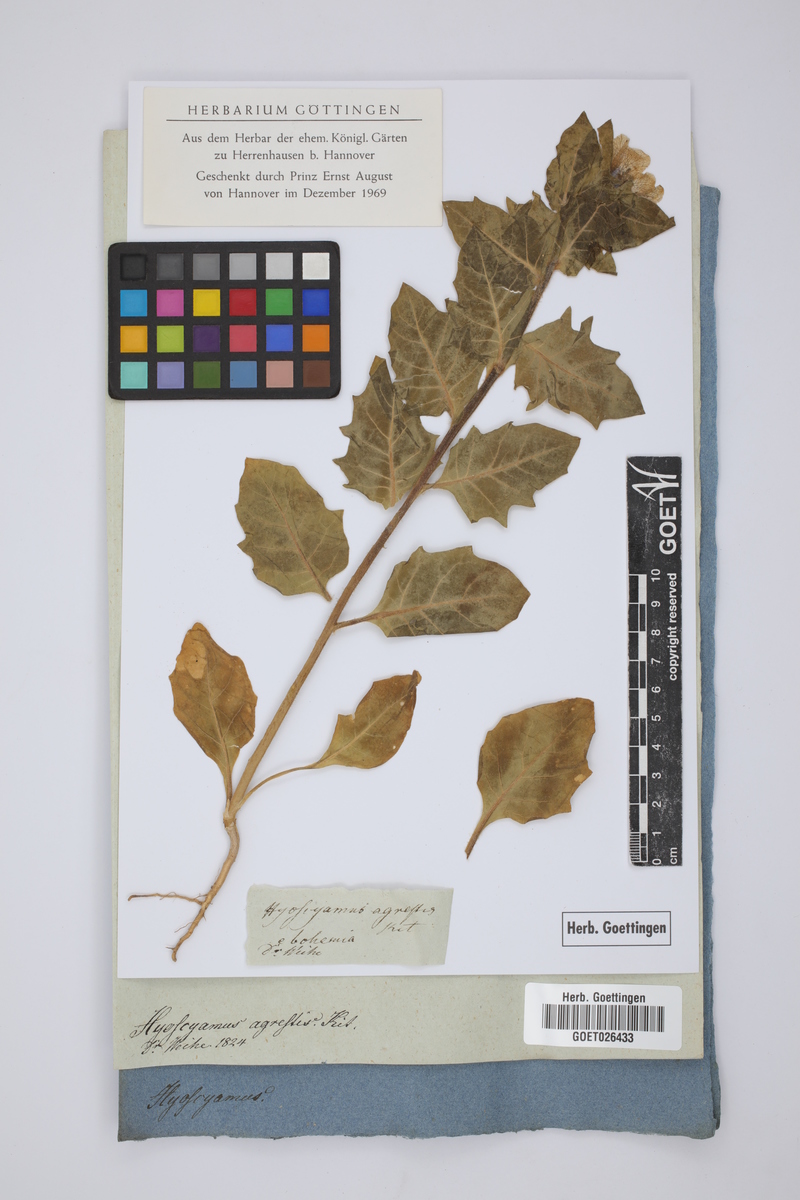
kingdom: Plantae
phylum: Tracheophyta
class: Magnoliopsida
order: Solanales
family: Solanaceae
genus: Hyoscyamus
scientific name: Hyoscyamus niger
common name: Henbane
